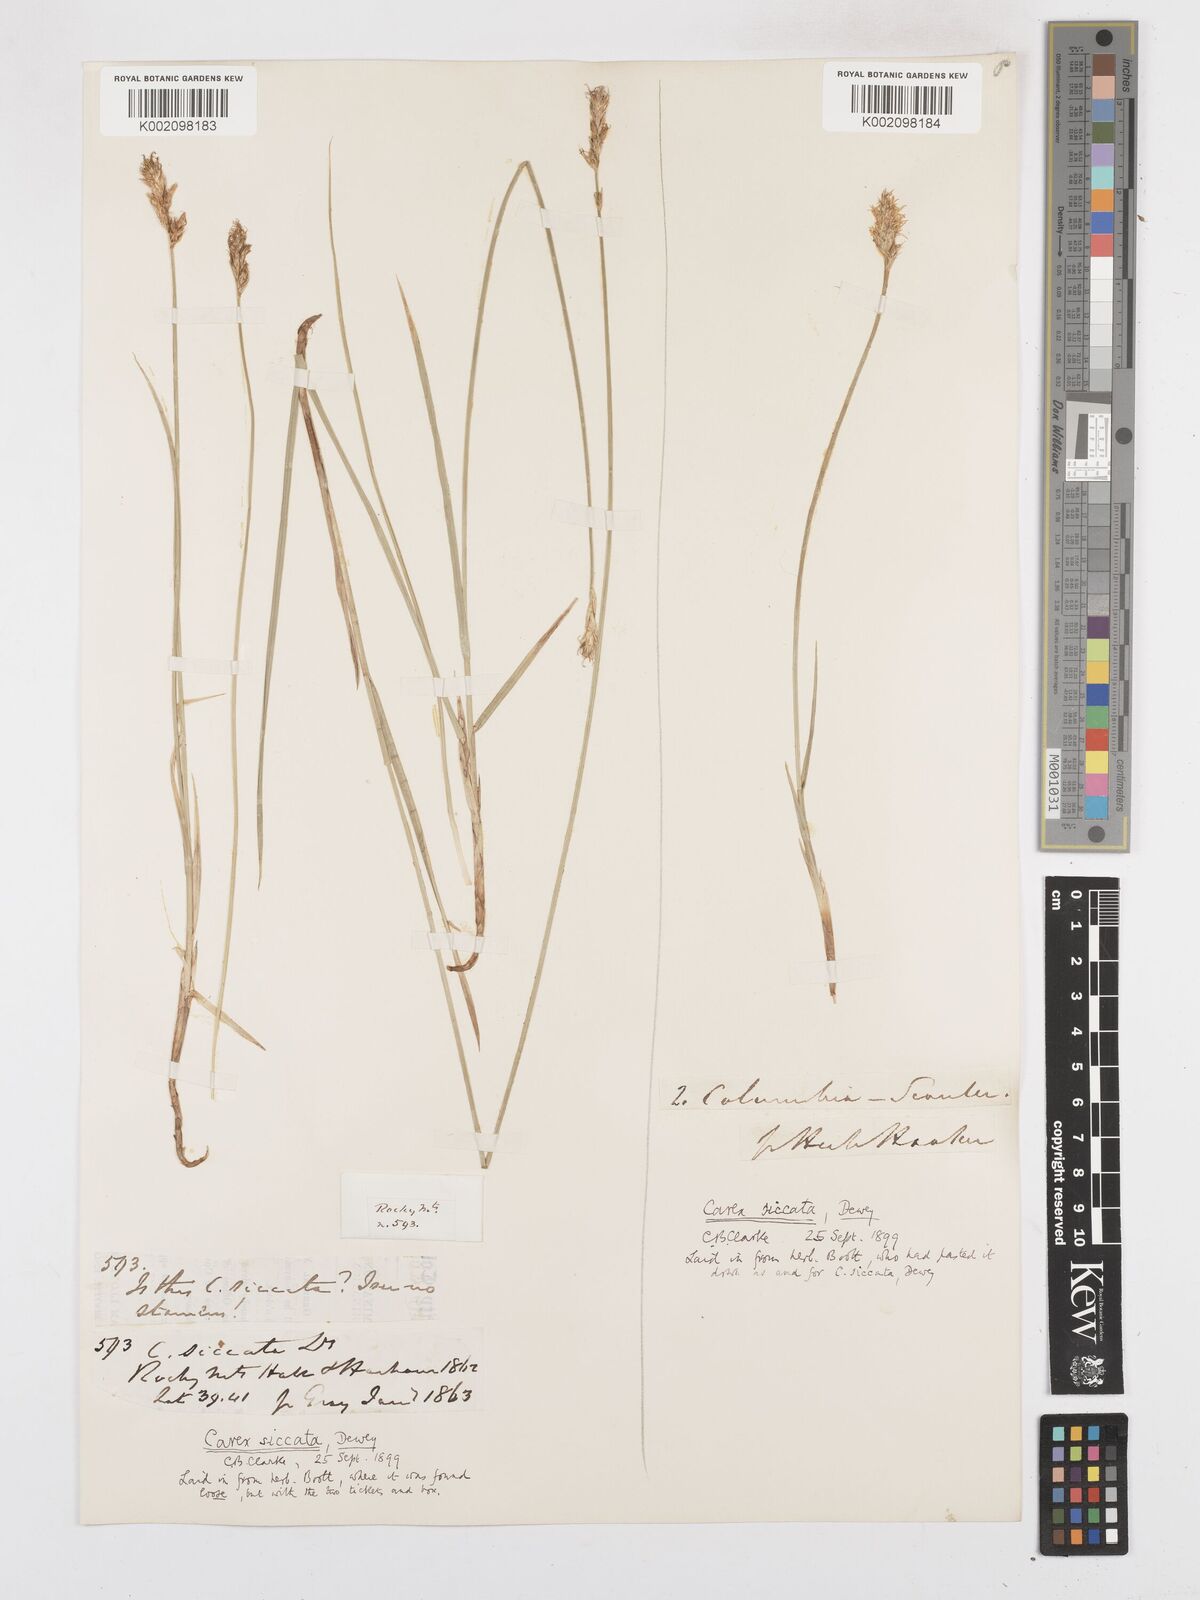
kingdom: Plantae
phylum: Tracheophyta
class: Liliopsida
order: Poales
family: Cyperaceae
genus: Carex
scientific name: Carex foenea
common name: Bronze sedge
